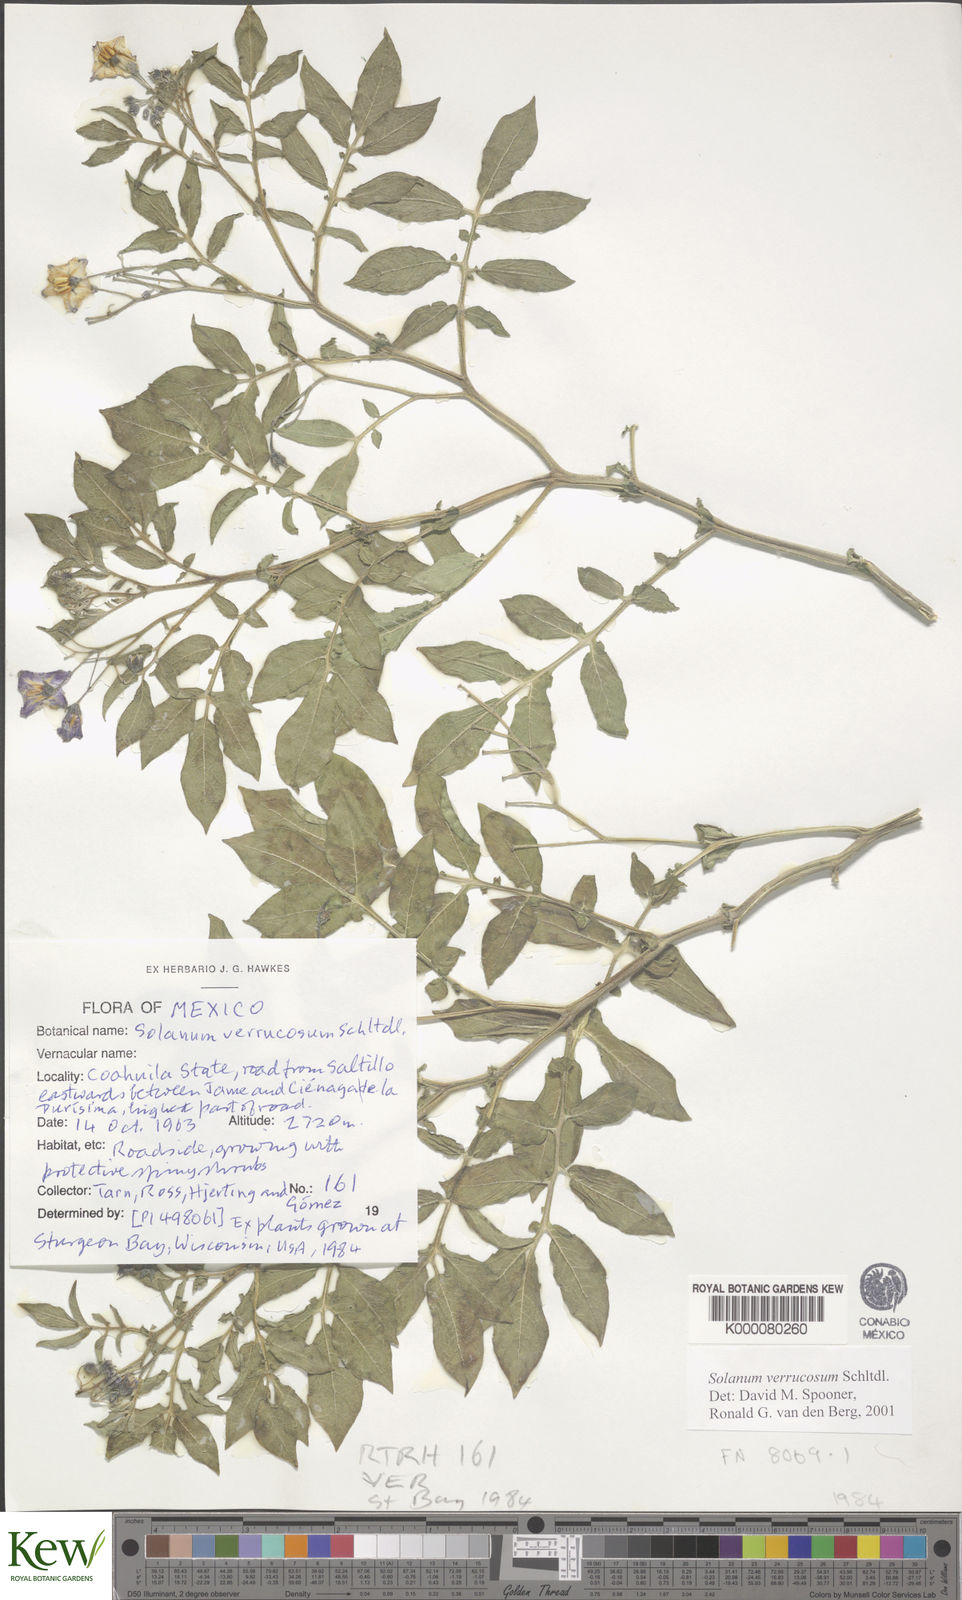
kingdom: Plantae
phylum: Tracheophyta
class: Magnoliopsida
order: Solanales
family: Solanaceae
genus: Solanum
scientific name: Solanum verrucosum
